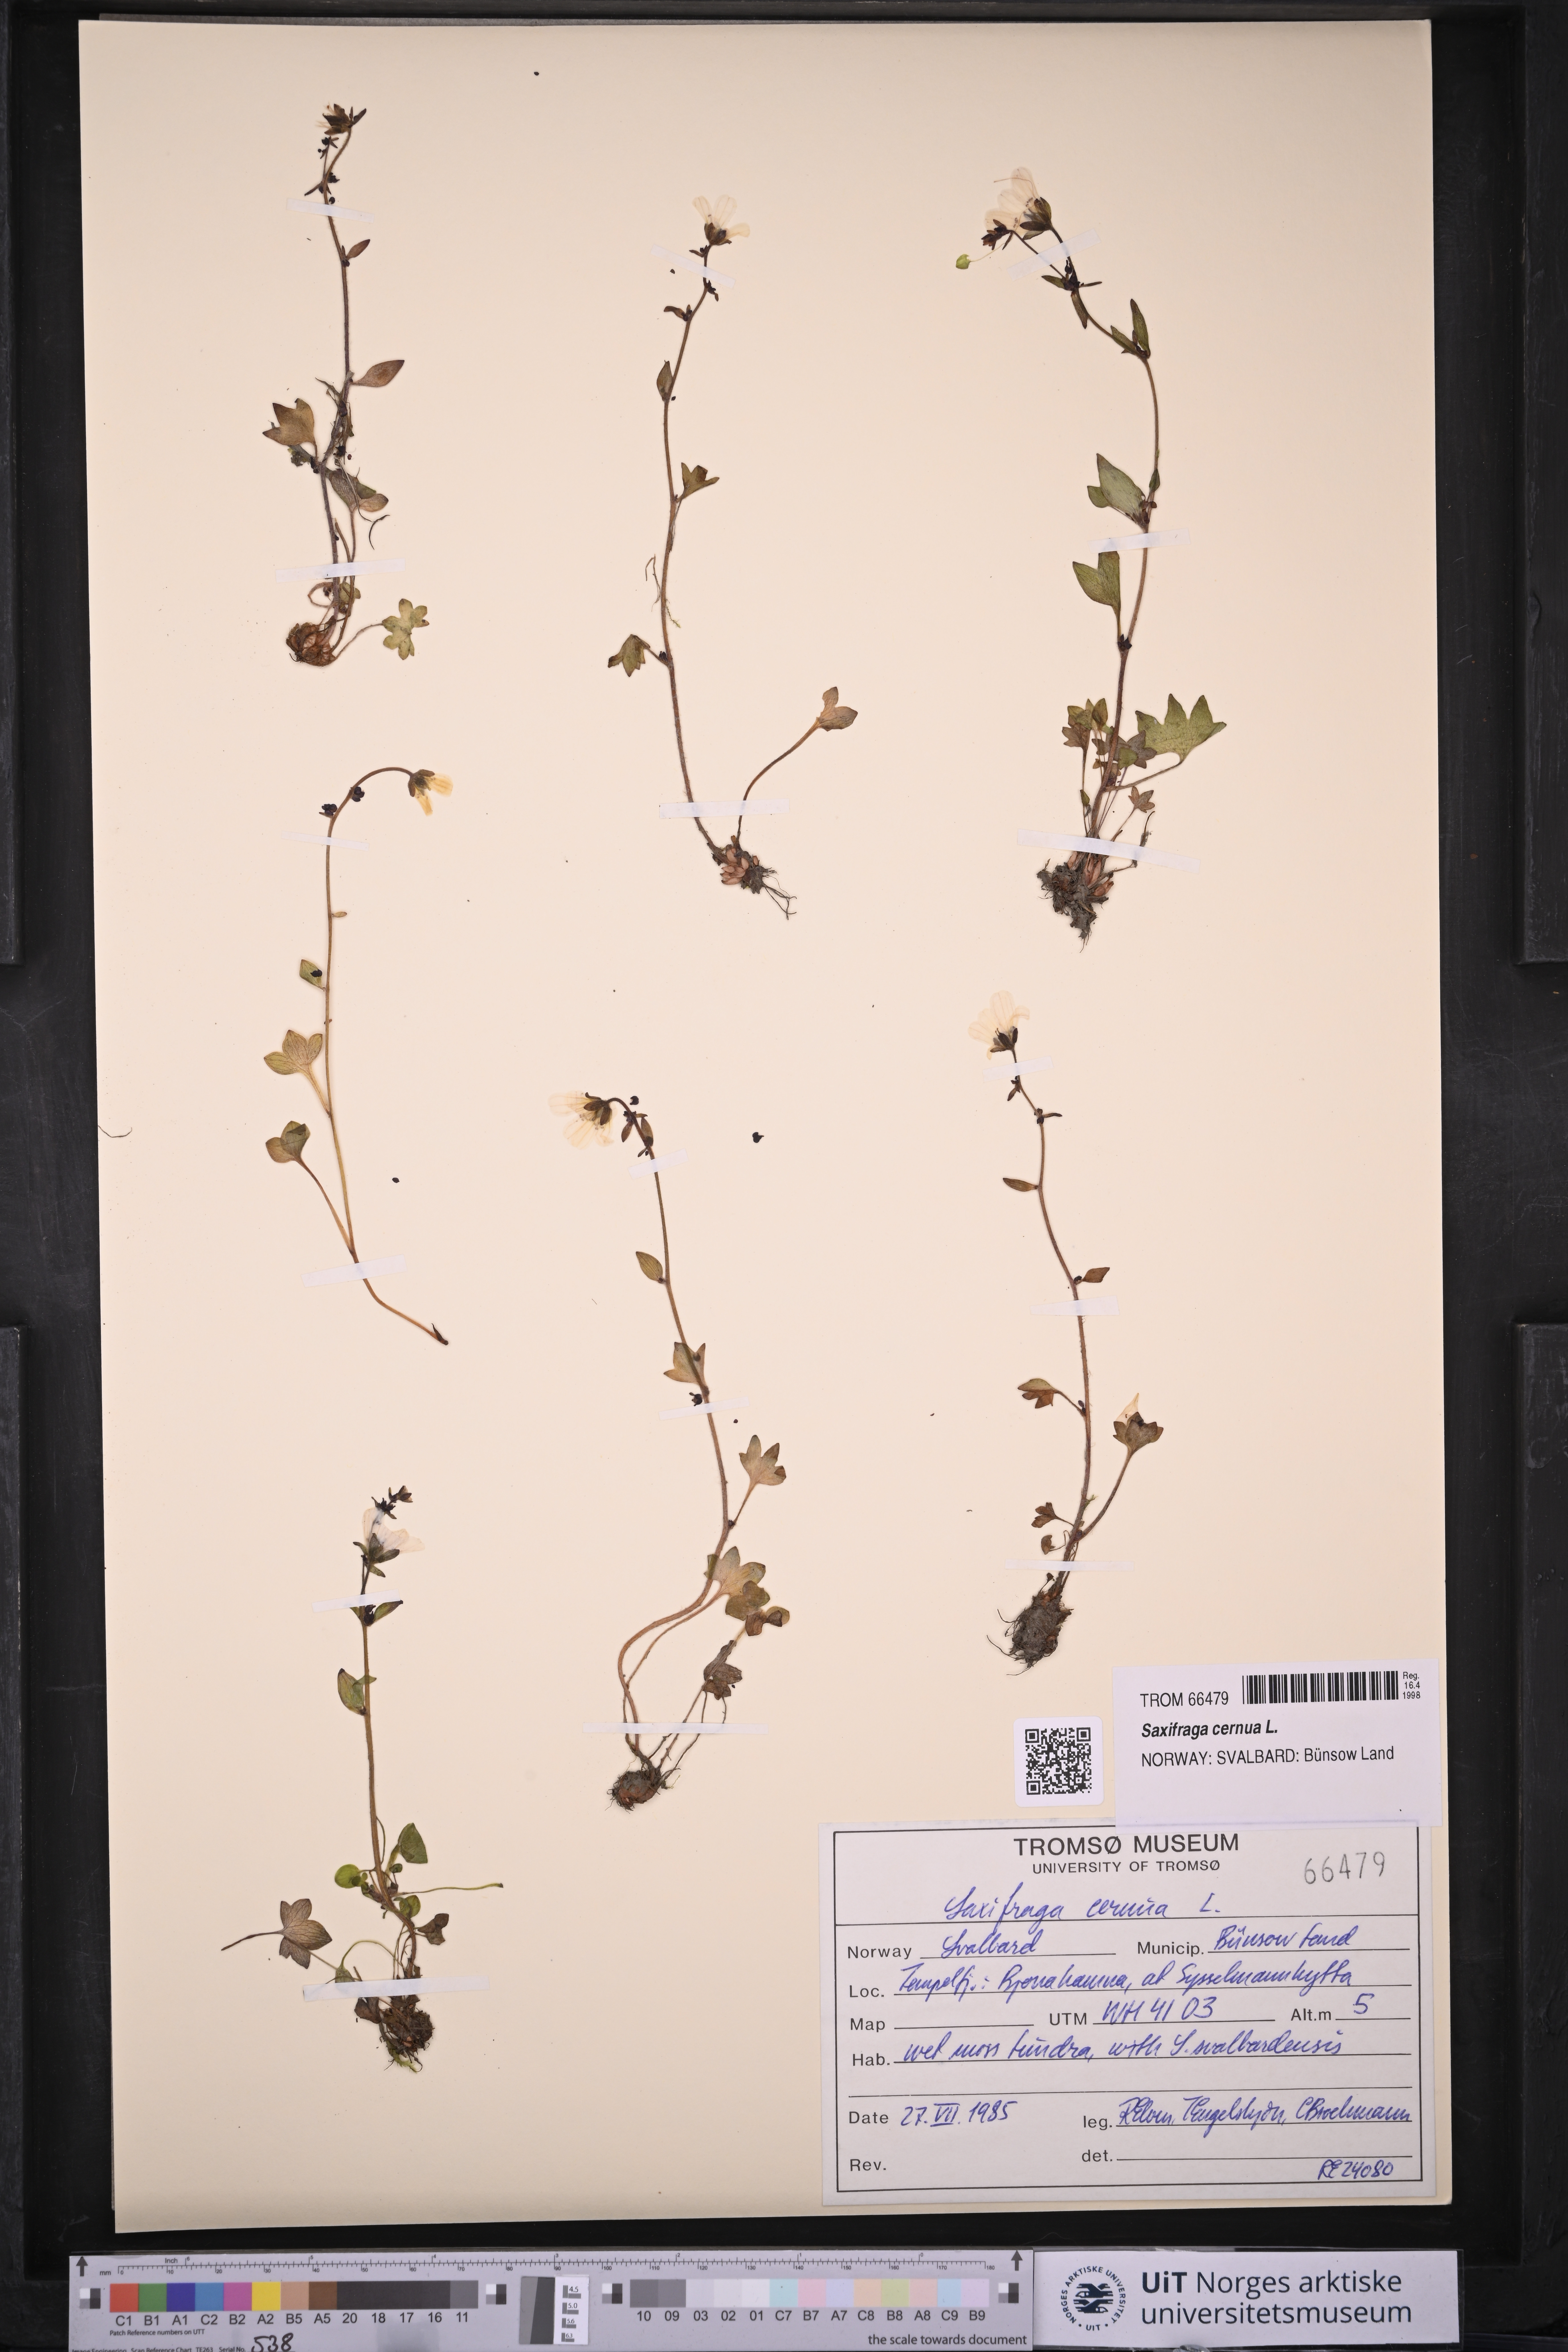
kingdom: Plantae
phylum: Tracheophyta
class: Magnoliopsida
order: Saxifragales
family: Saxifragaceae
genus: Saxifraga
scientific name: Saxifraga cernua
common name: Drooping saxifrage
